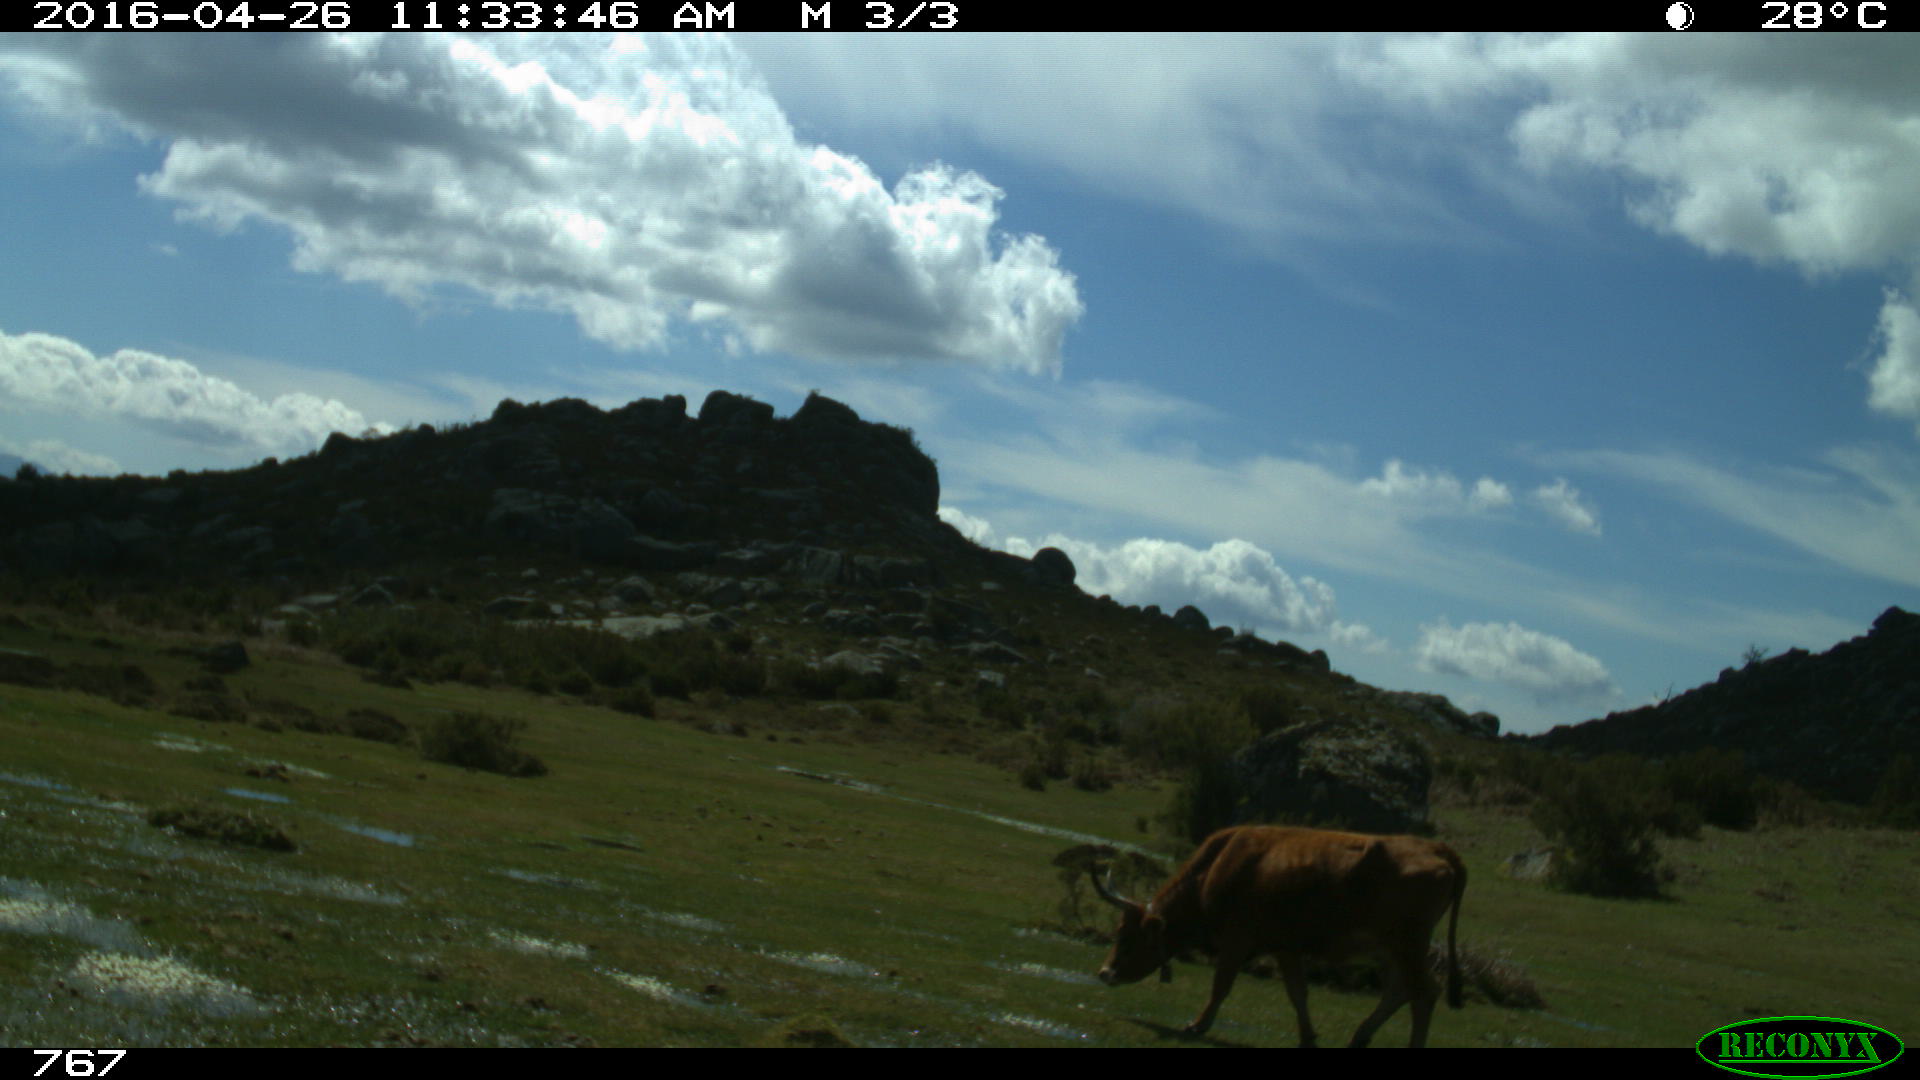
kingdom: Animalia
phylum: Chordata
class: Mammalia
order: Artiodactyla
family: Bovidae
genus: Bos
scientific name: Bos taurus
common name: Domesticated cattle
